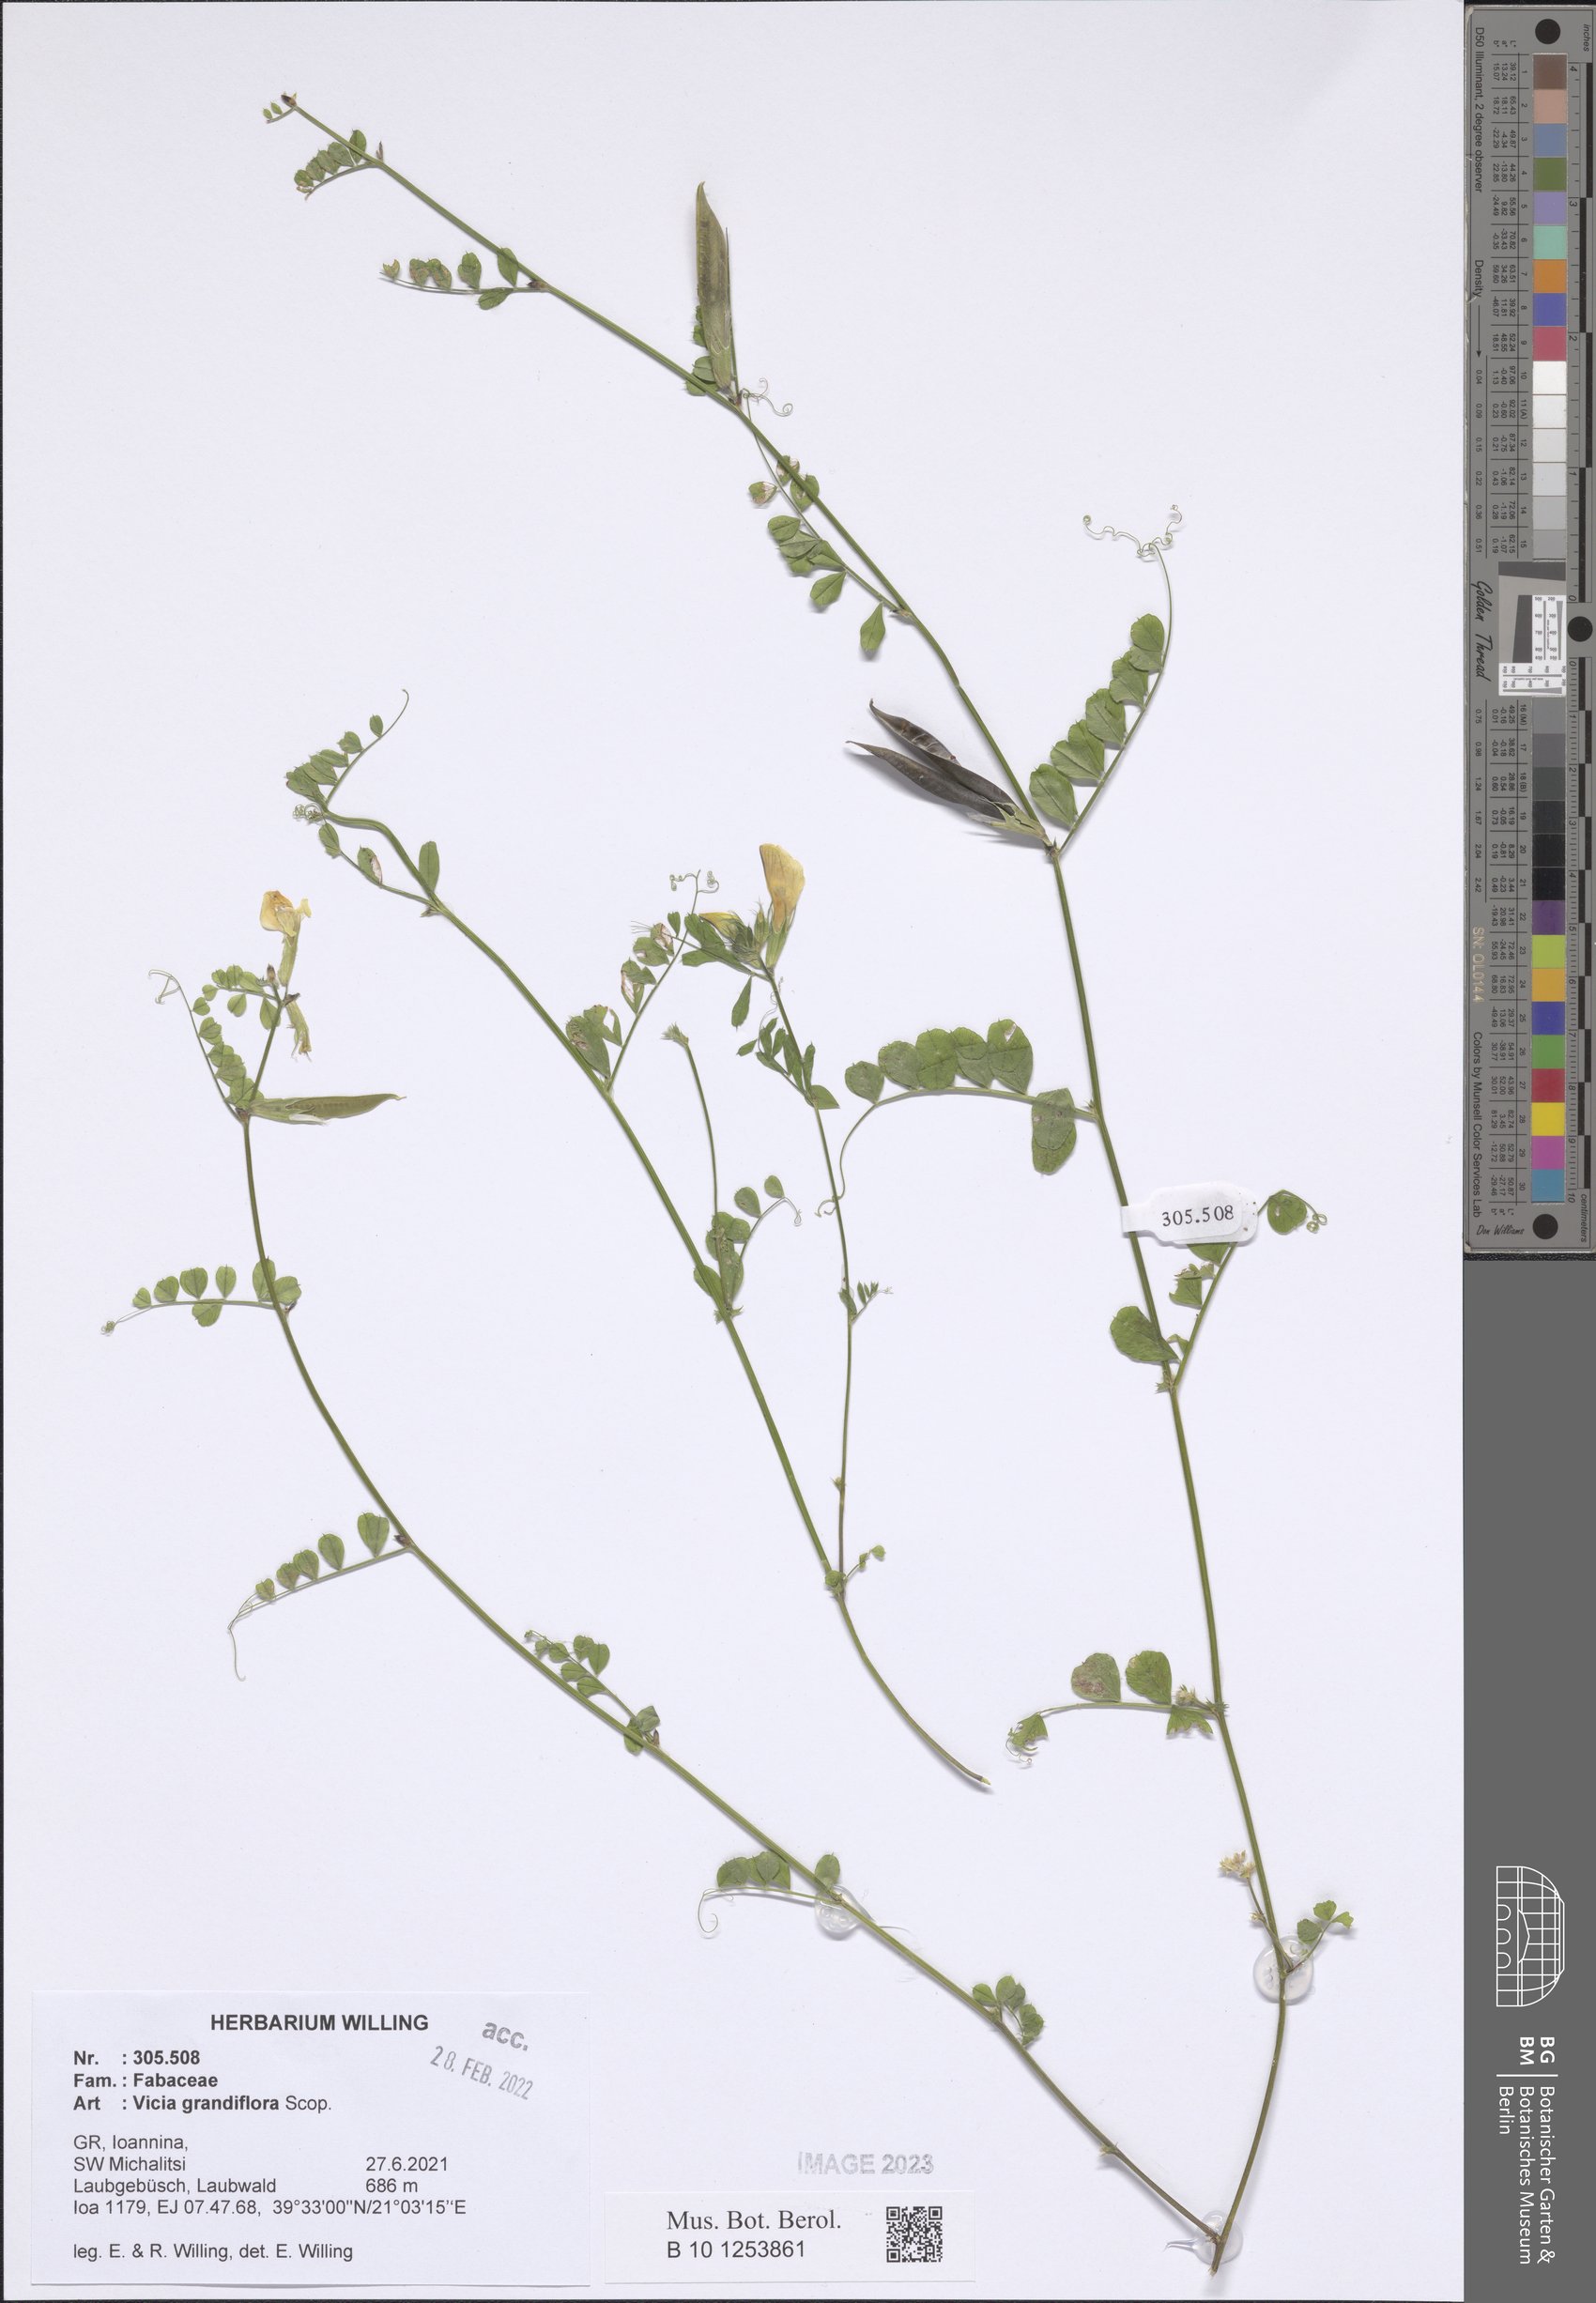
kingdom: Plantae
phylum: Tracheophyta
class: Magnoliopsida
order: Fabales
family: Fabaceae
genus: Vicia
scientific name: Vicia grandiflora
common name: Large yellow vetch
